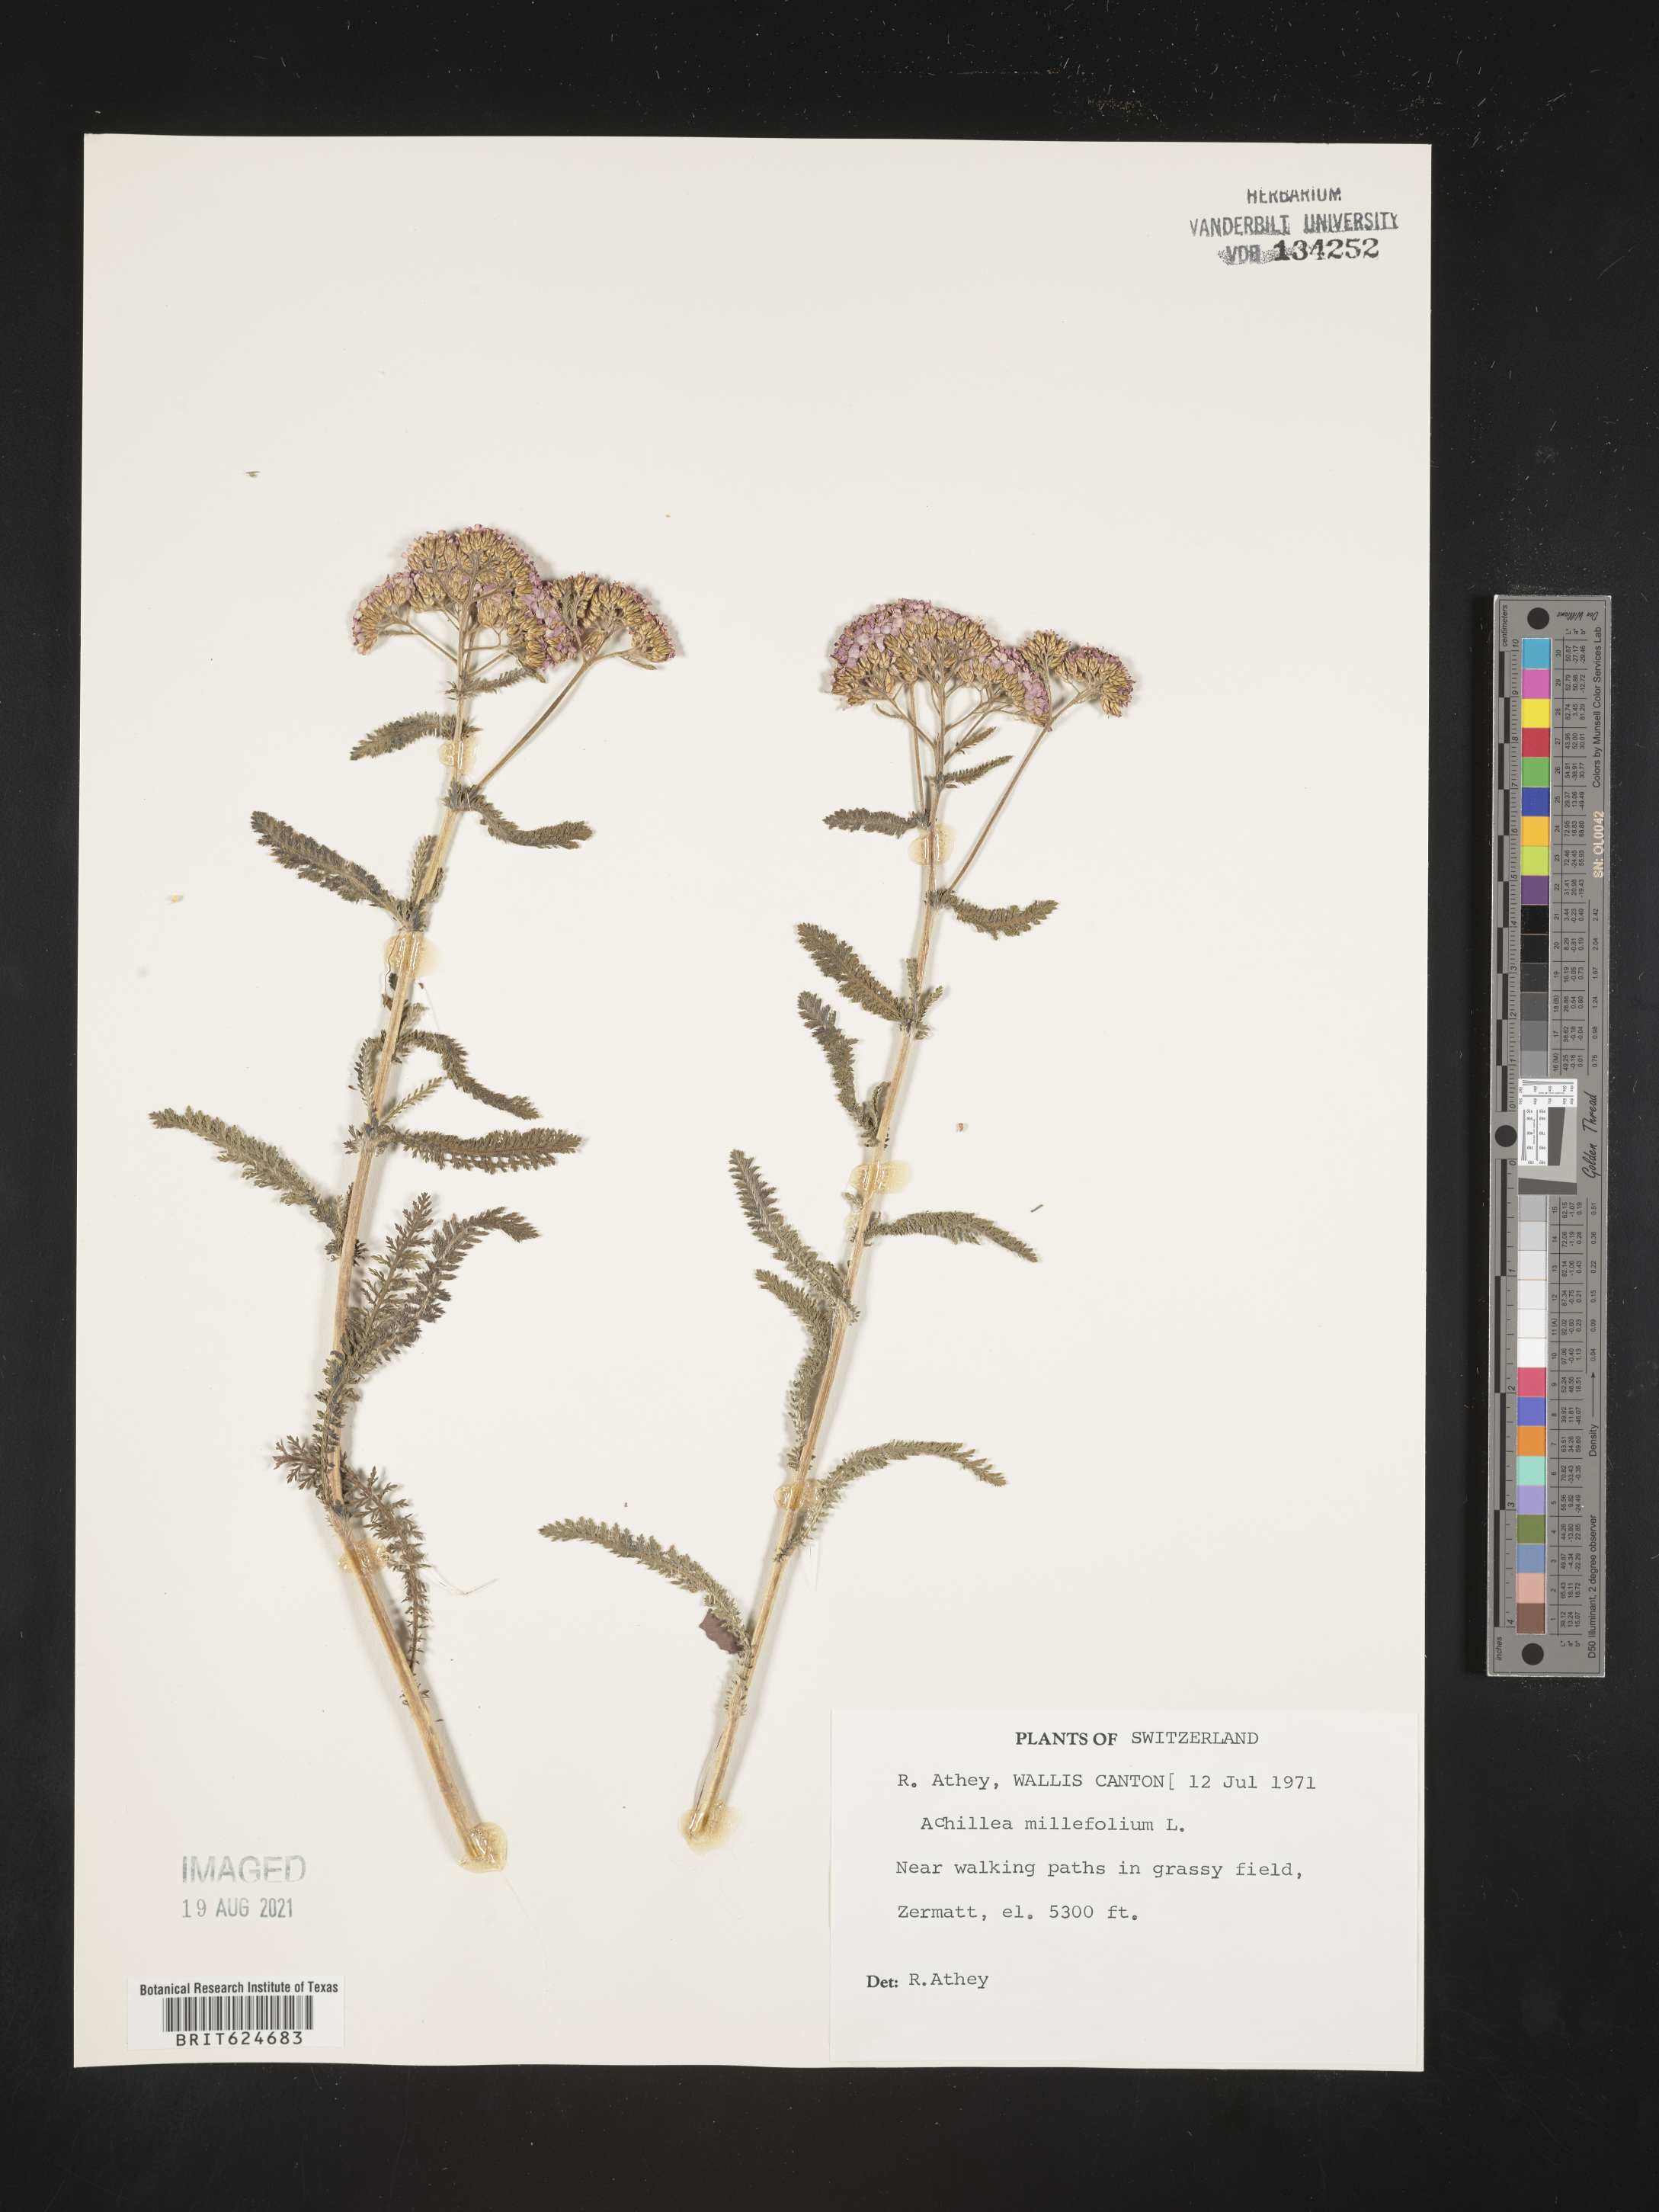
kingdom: Plantae
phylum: Tracheophyta
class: Magnoliopsida
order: Asterales
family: Asteraceae
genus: Achillea
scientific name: Achillea millefolium
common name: Yarrow
